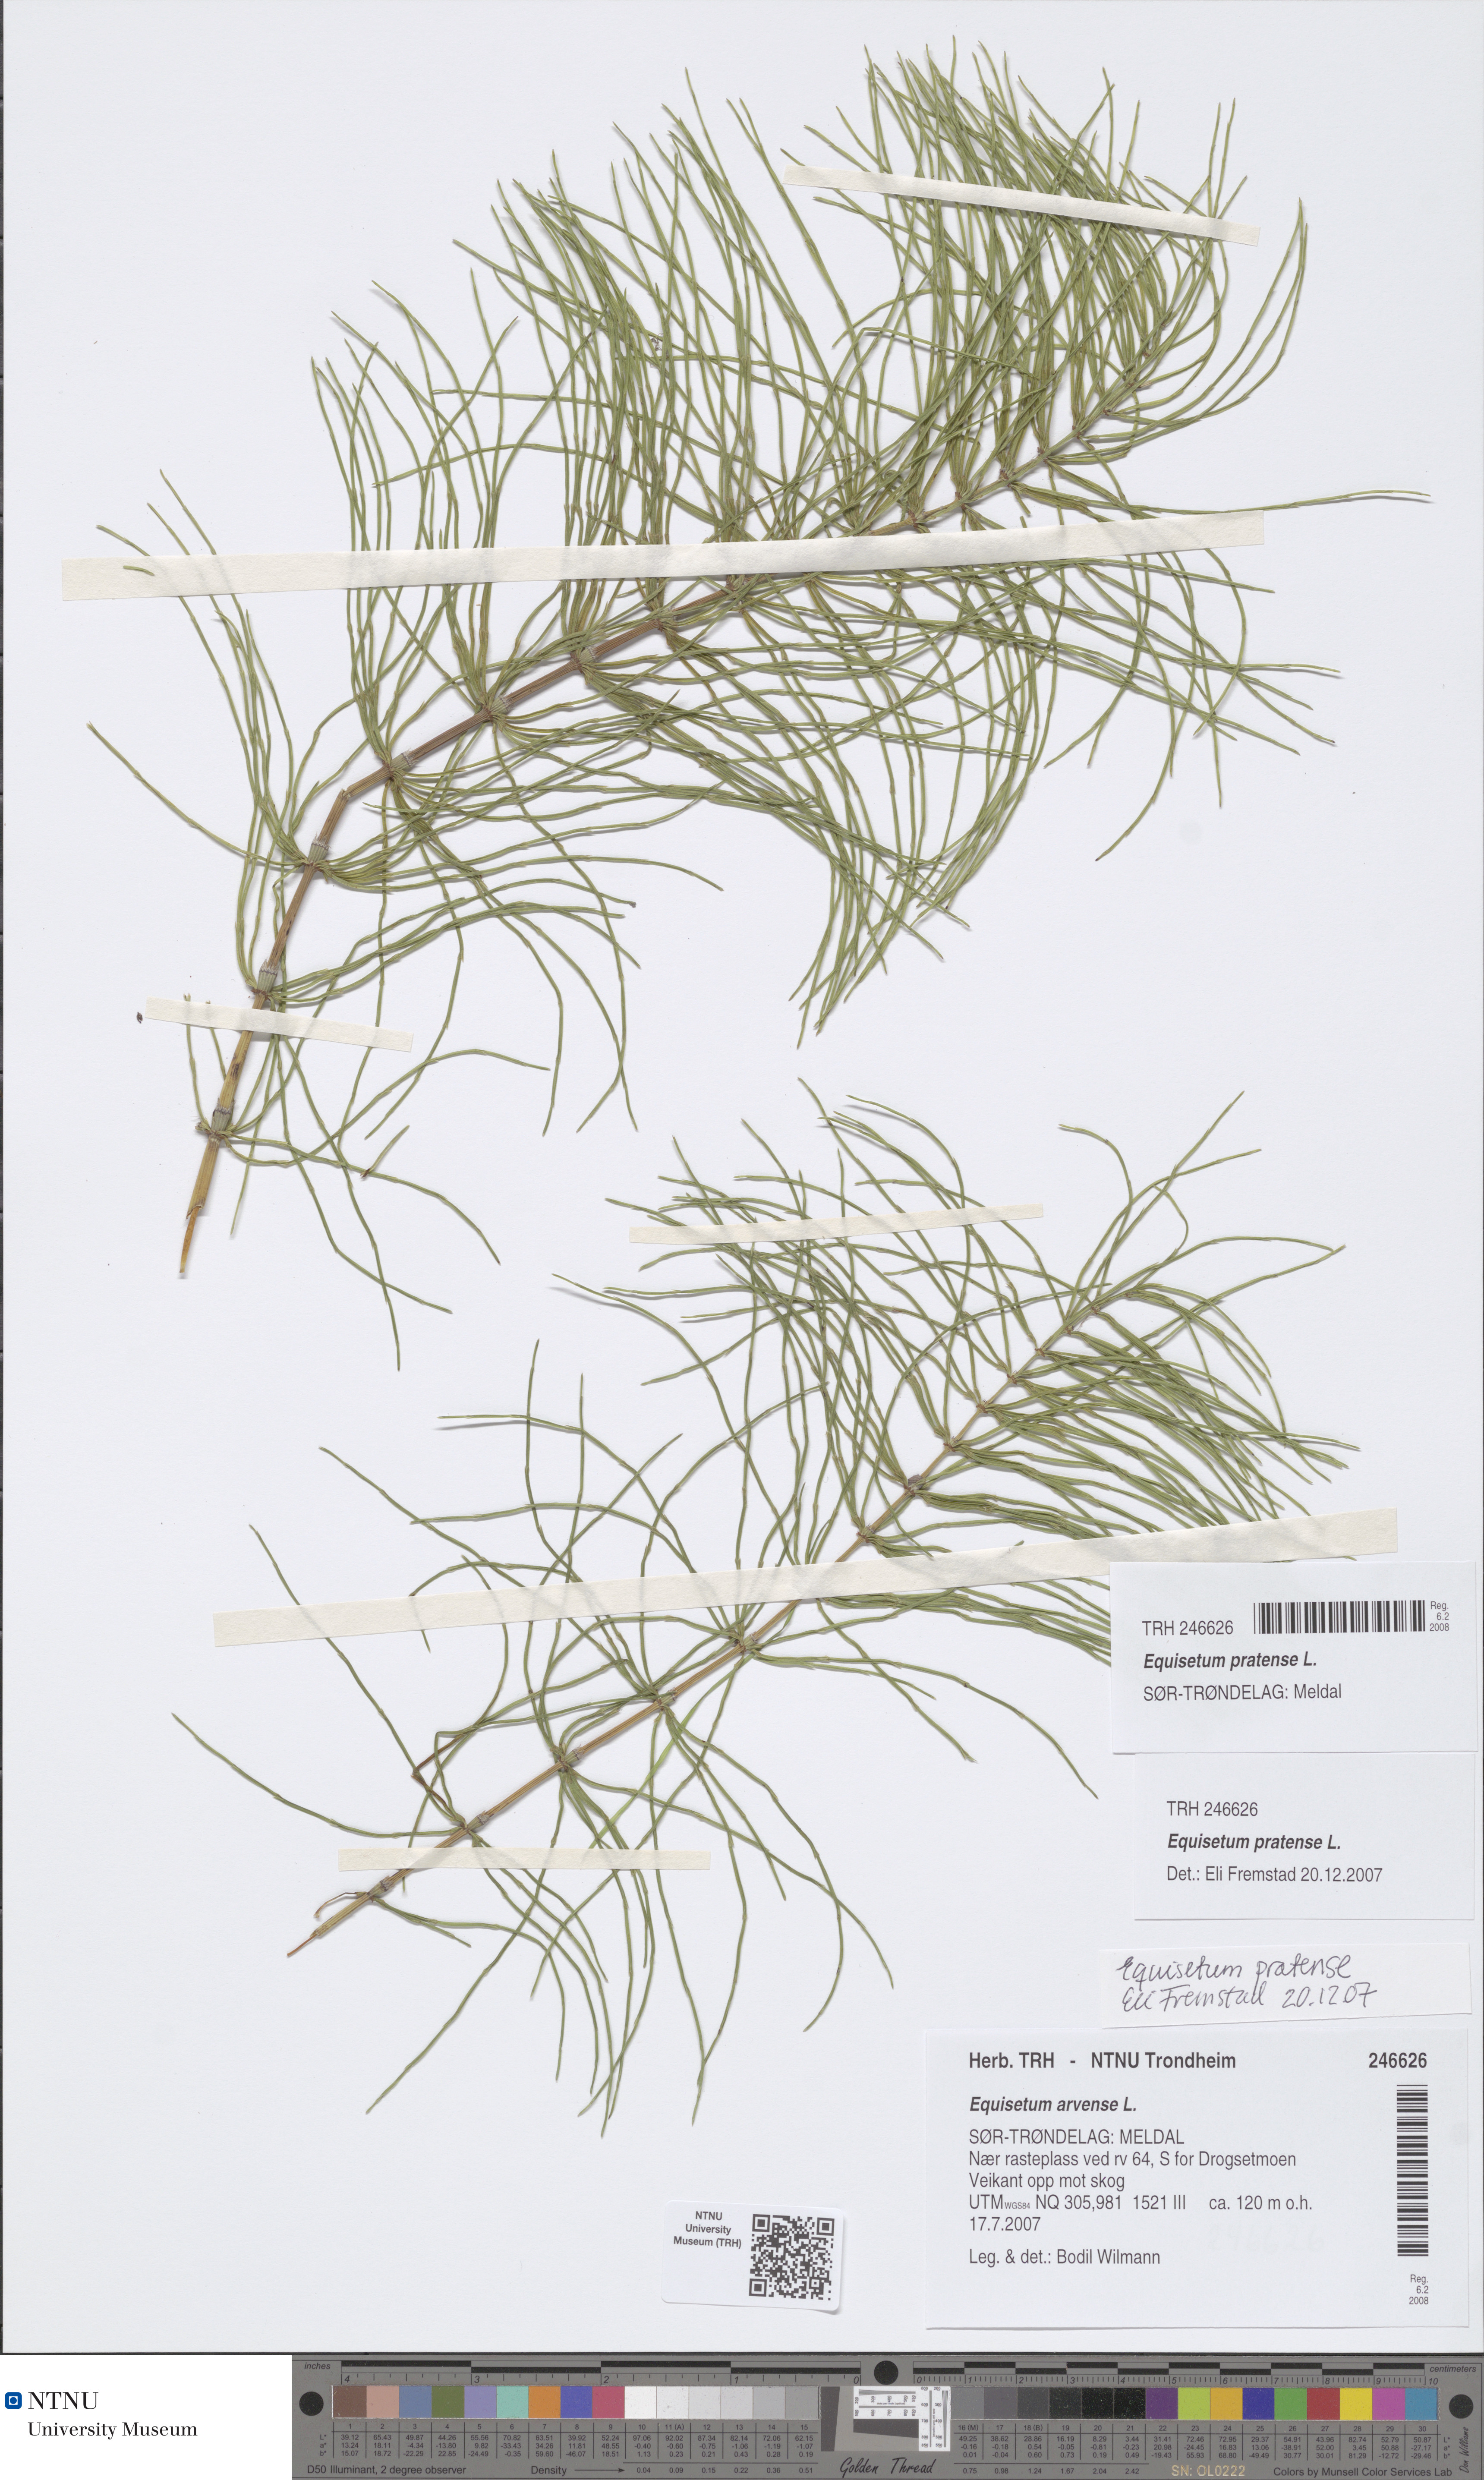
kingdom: Plantae
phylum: Tracheophyta
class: Polypodiopsida
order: Equisetales
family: Equisetaceae
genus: Equisetum
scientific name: Equisetum pratense
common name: Meadow horsetail
